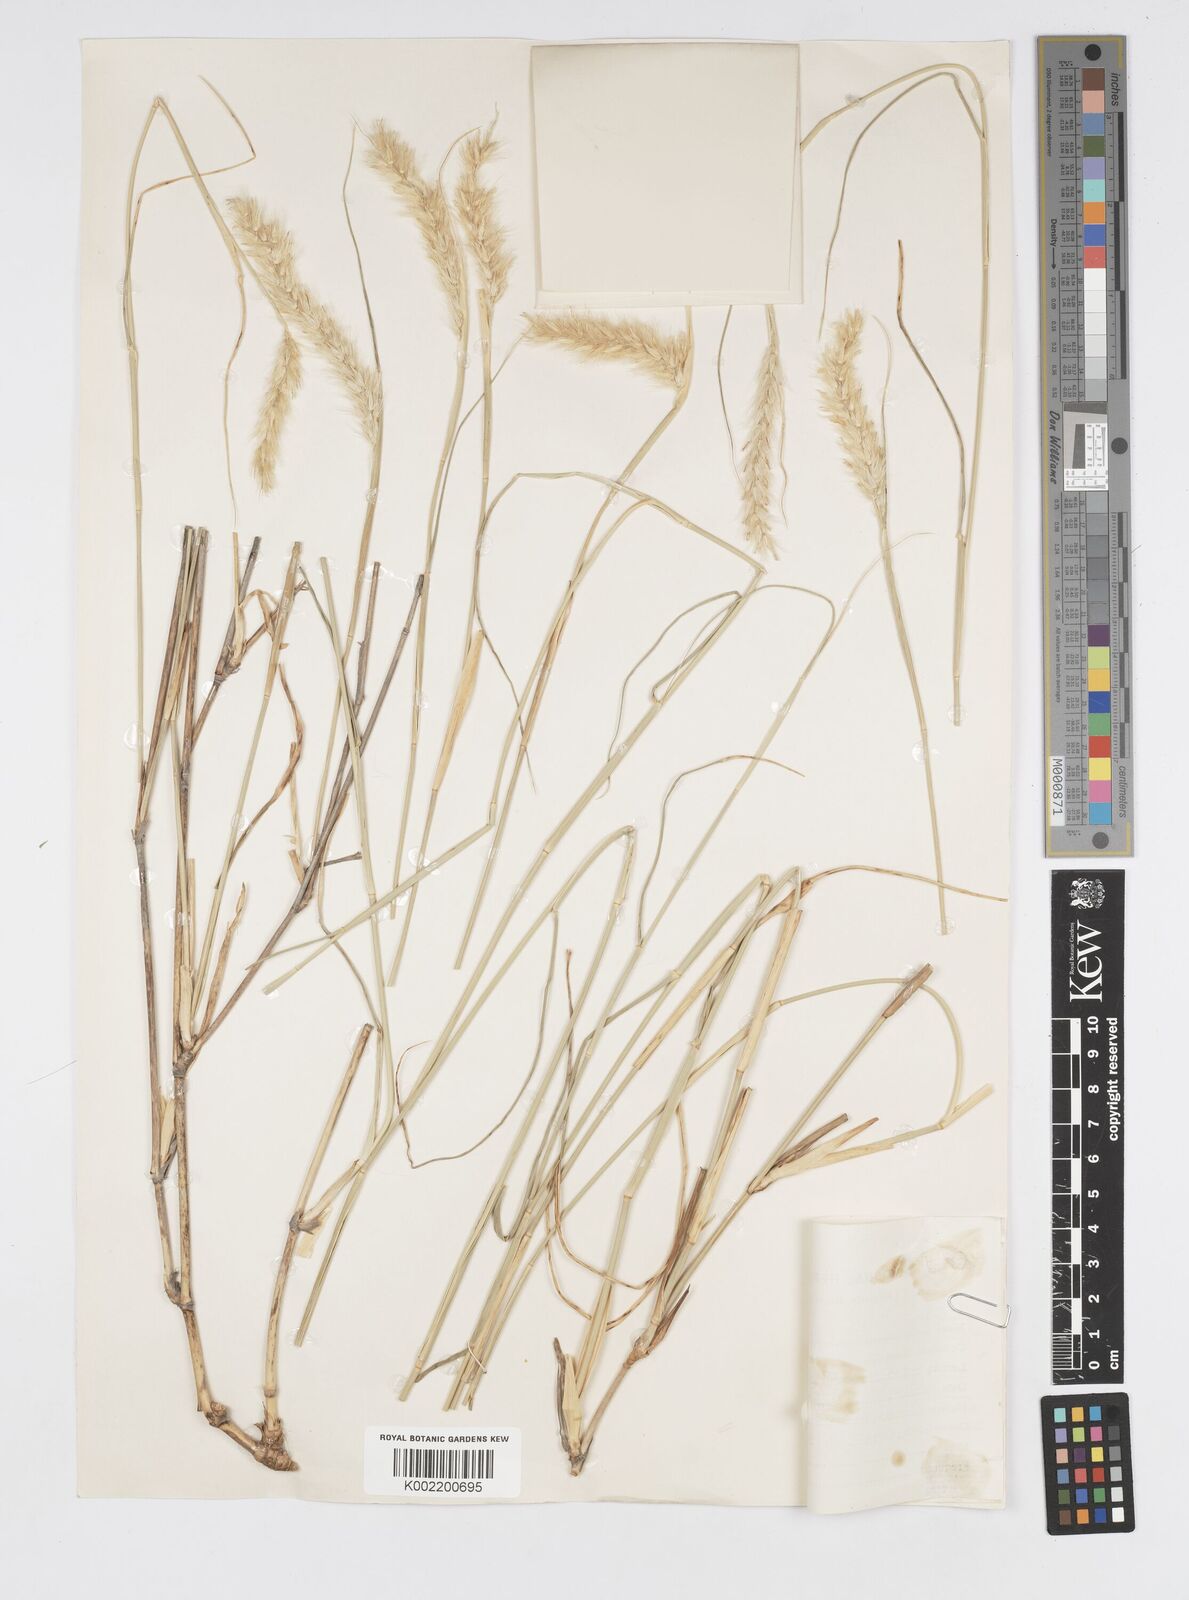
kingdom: Plantae
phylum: Tracheophyta
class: Liliopsida
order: Poales
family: Poaceae
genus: Cenchrus
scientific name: Cenchrus divisus
